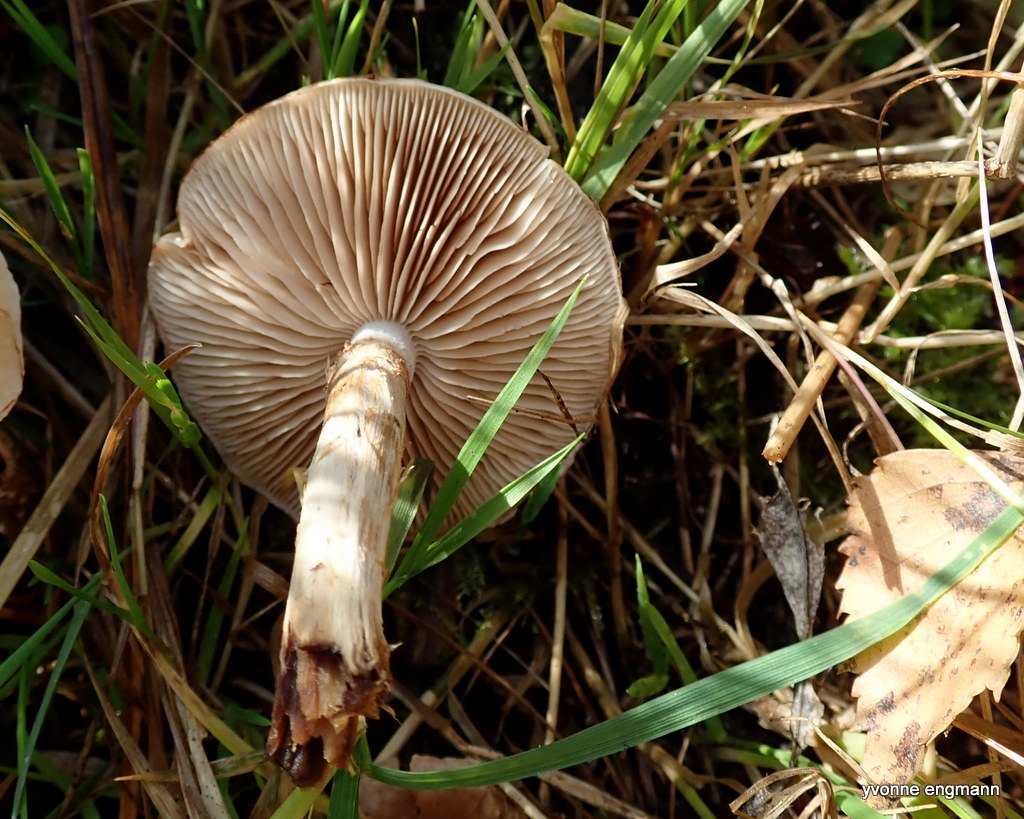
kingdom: Fungi
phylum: Basidiomycota
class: Agaricomycetes
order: Agaricales
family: Hymenogastraceae
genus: Hebeloma
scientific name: Hebeloma
